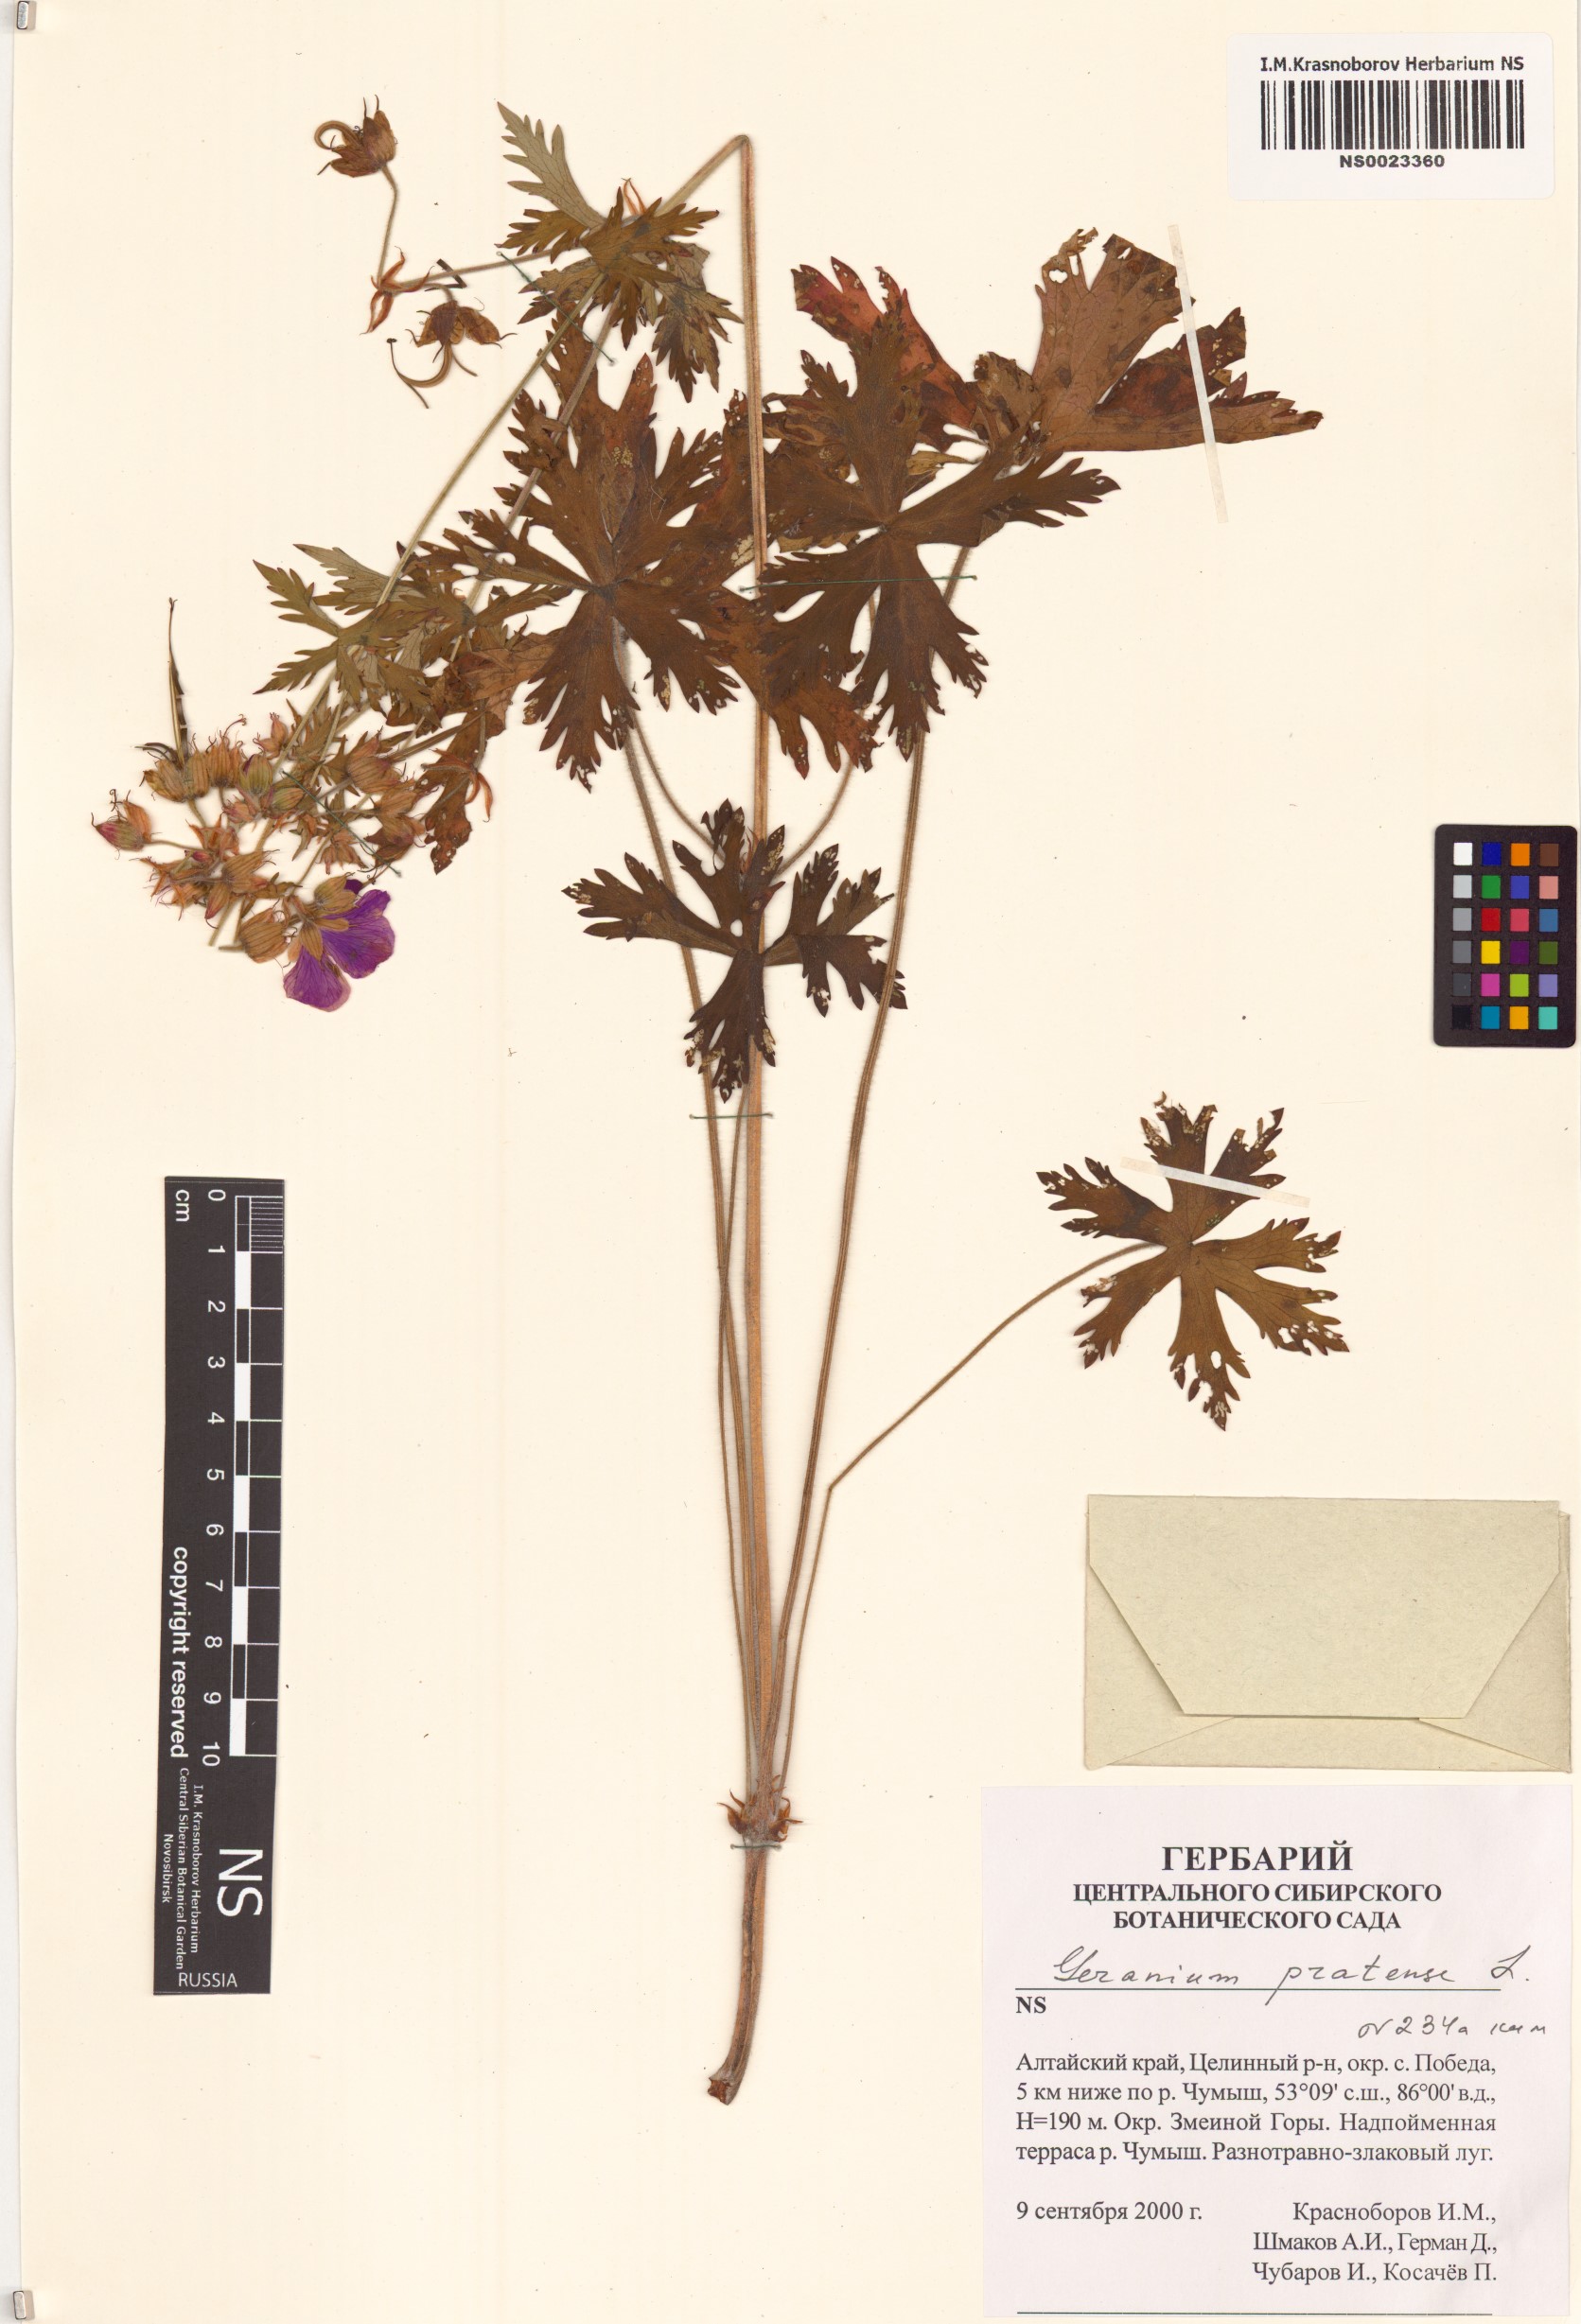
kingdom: Plantae
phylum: Tracheophyta
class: Magnoliopsida
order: Geraniales
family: Geraniaceae
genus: Geranium
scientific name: Geranium pratense
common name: Meadow crane's-bill
